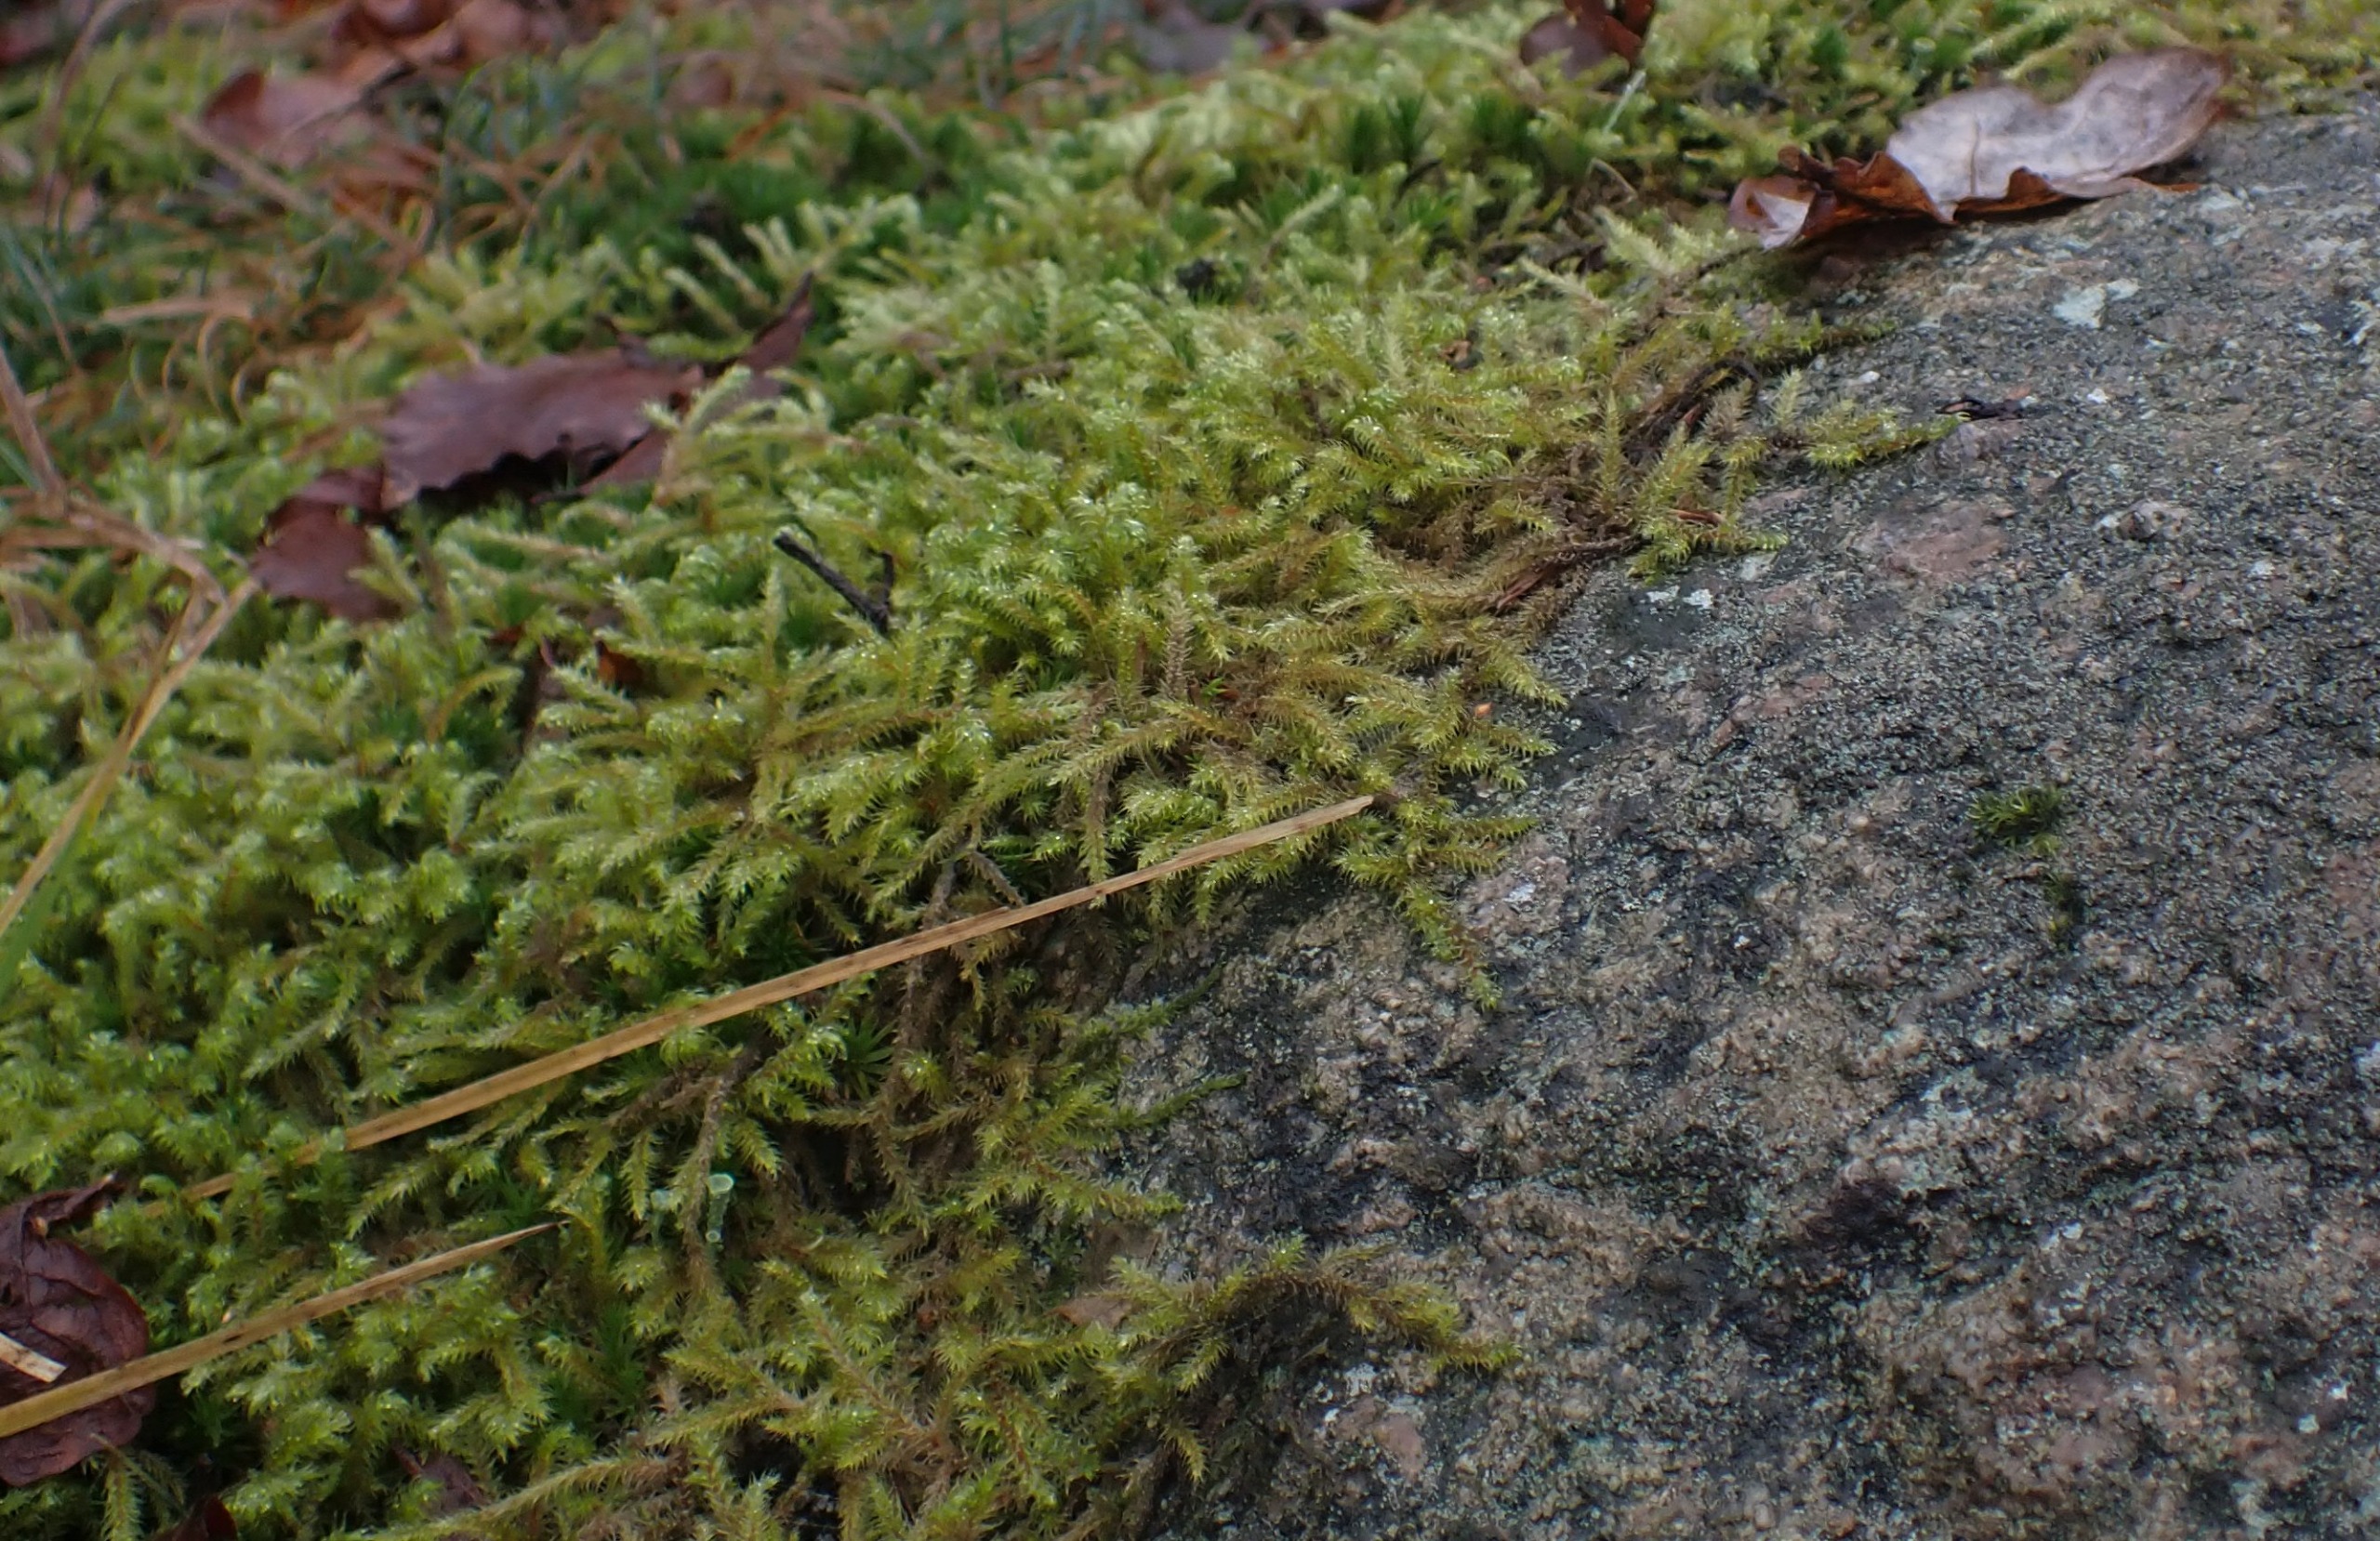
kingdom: Plantae
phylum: Bryophyta
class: Bryopsida
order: Hypnales
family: Hylocomiaceae
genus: Rhytidiadelphus
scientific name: Rhytidiadelphus loreus
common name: Ulvefod-kransemos
